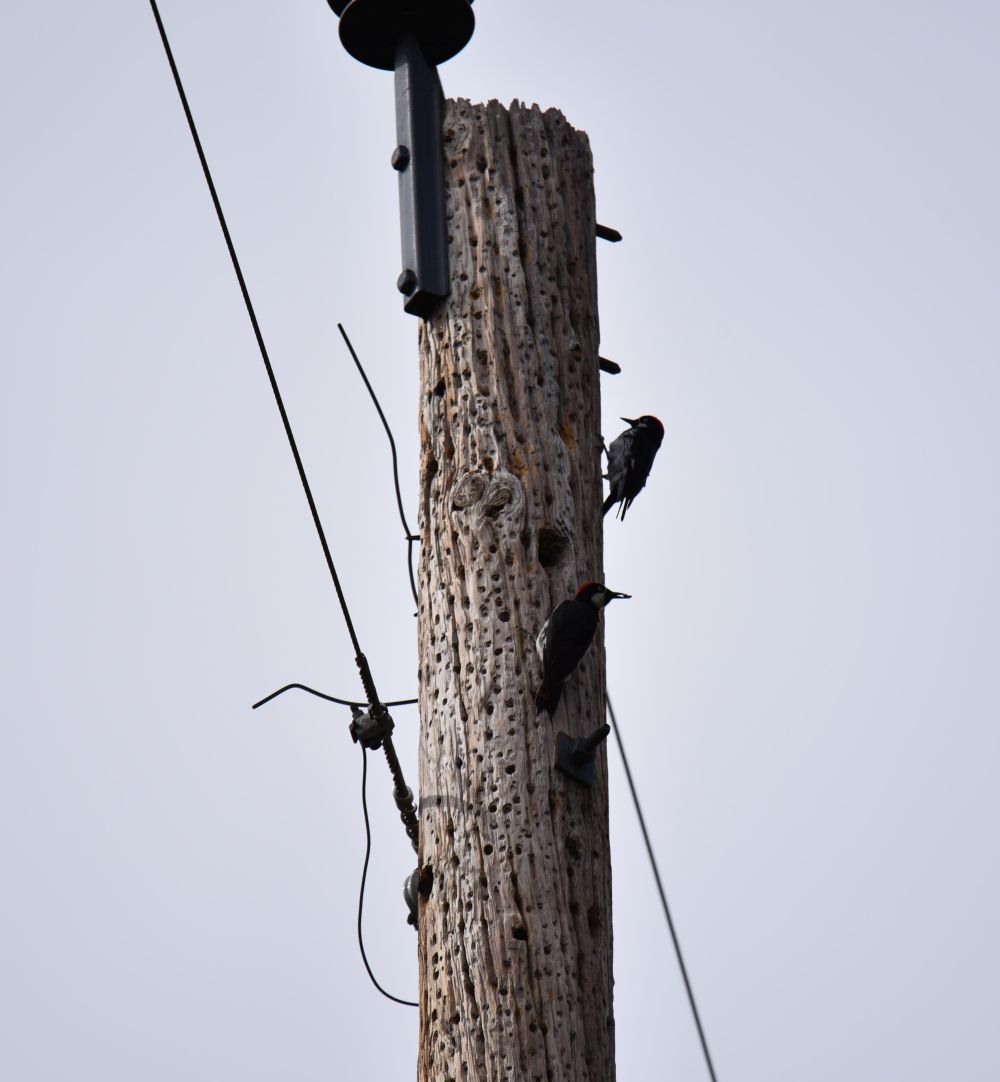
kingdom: Animalia
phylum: Chordata
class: Aves
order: Piciformes
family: Picidae
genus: Melanerpes
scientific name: Melanerpes formicivorus
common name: Acorn woodpecker
